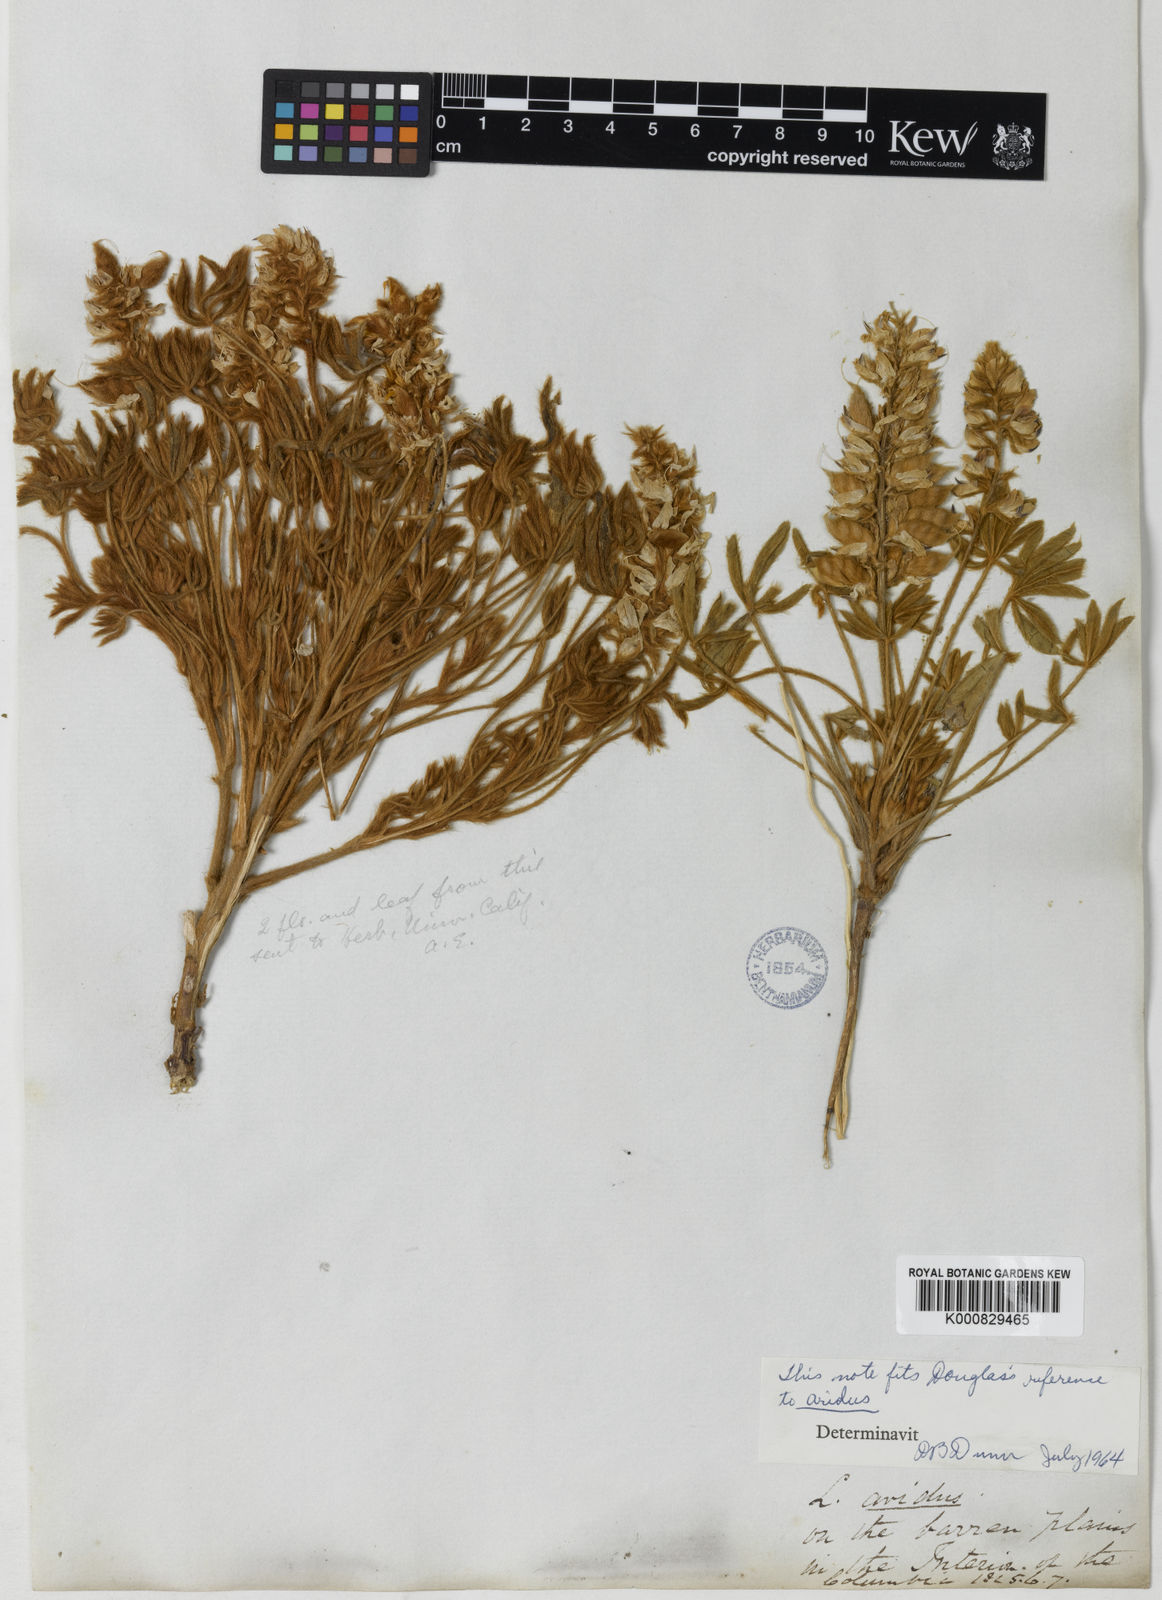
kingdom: Plantae
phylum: Tracheophyta
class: Magnoliopsida
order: Fabales
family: Fabaceae
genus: Lupinus
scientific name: Lupinus
